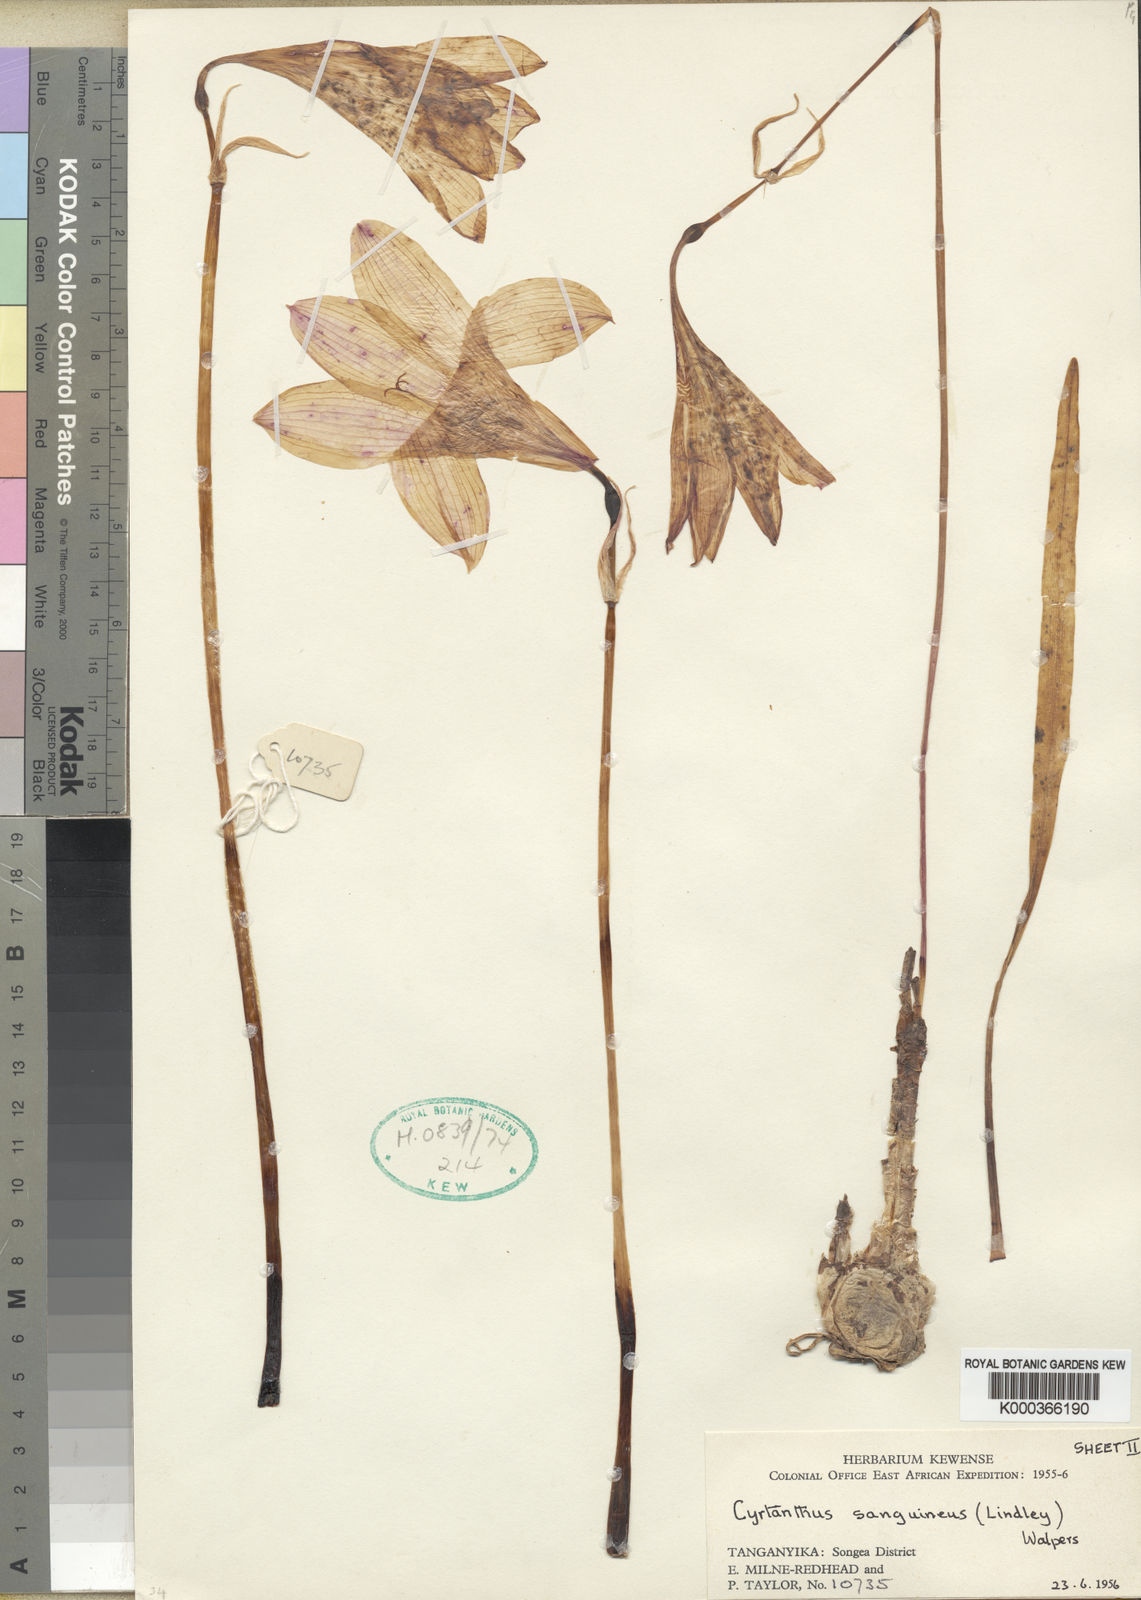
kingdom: Plantae
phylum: Tracheophyta
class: Liliopsida
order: Asparagales
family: Amaryllidaceae
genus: Cyrtanthus
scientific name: Cyrtanthus sanguineus
